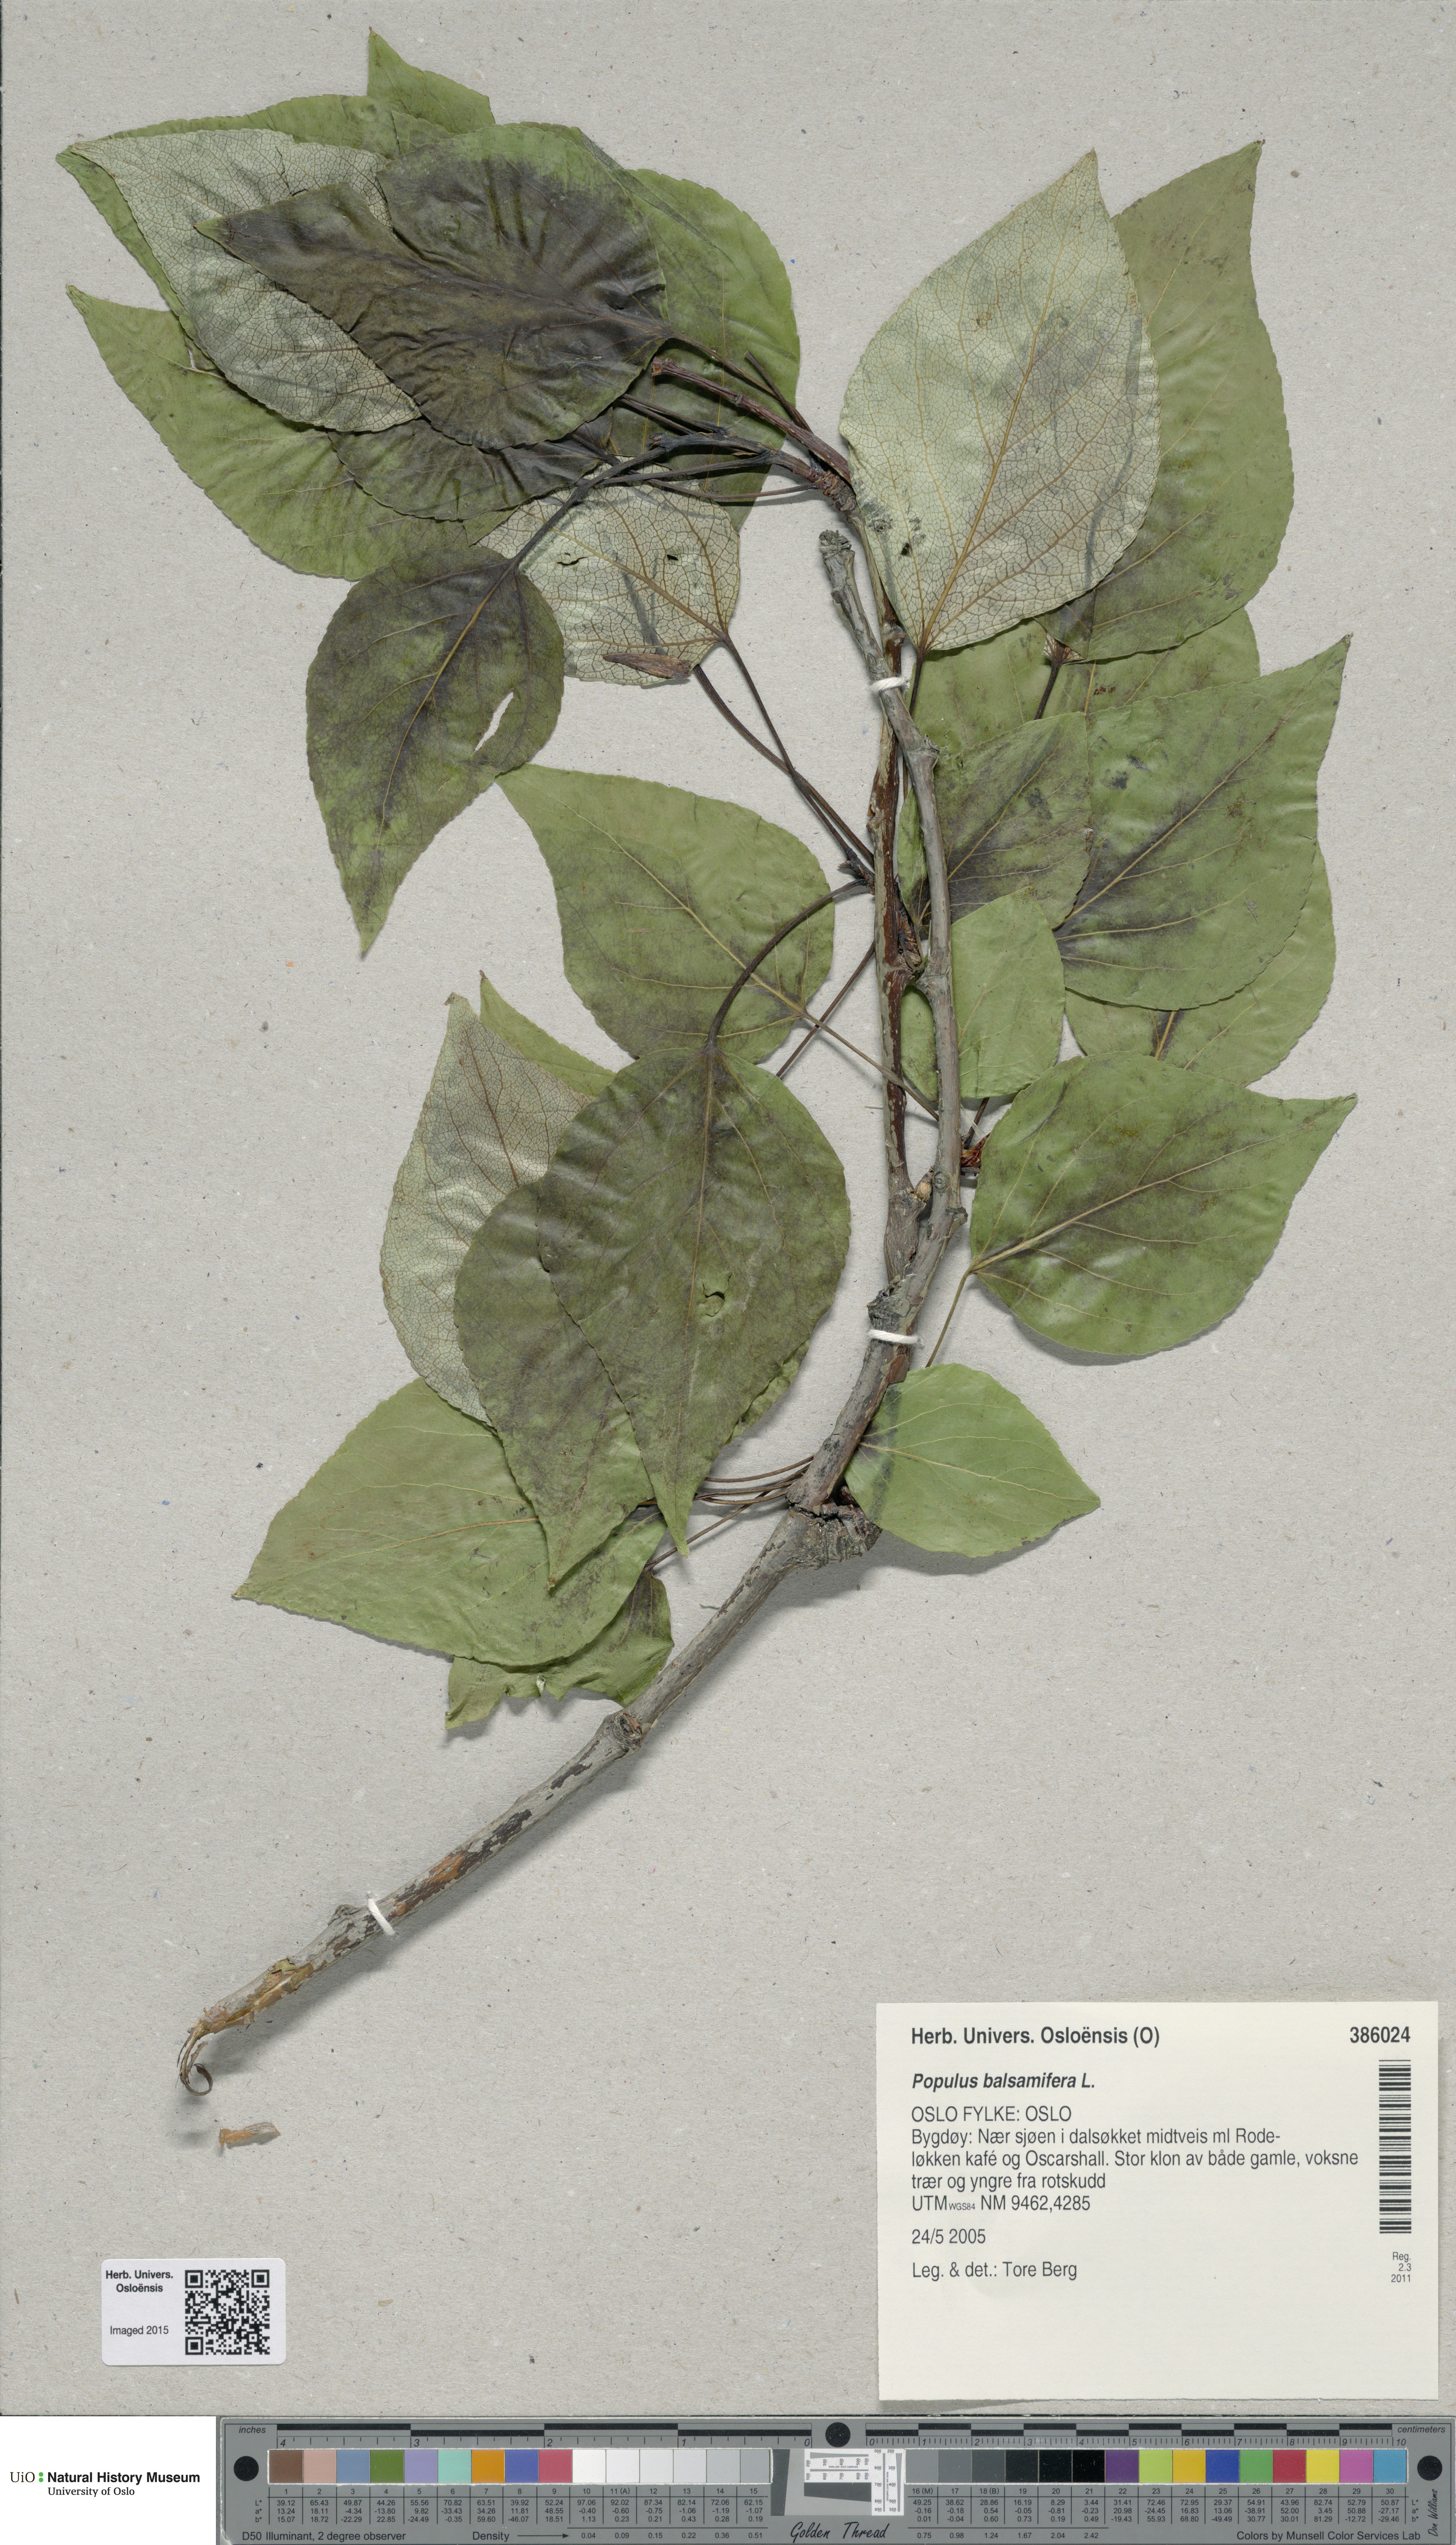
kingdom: Plantae
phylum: Tracheophyta
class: Magnoliopsida
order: Malpighiales
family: Salicaceae
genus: Populus
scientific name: Populus balsamifera
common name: Balsam poplar
